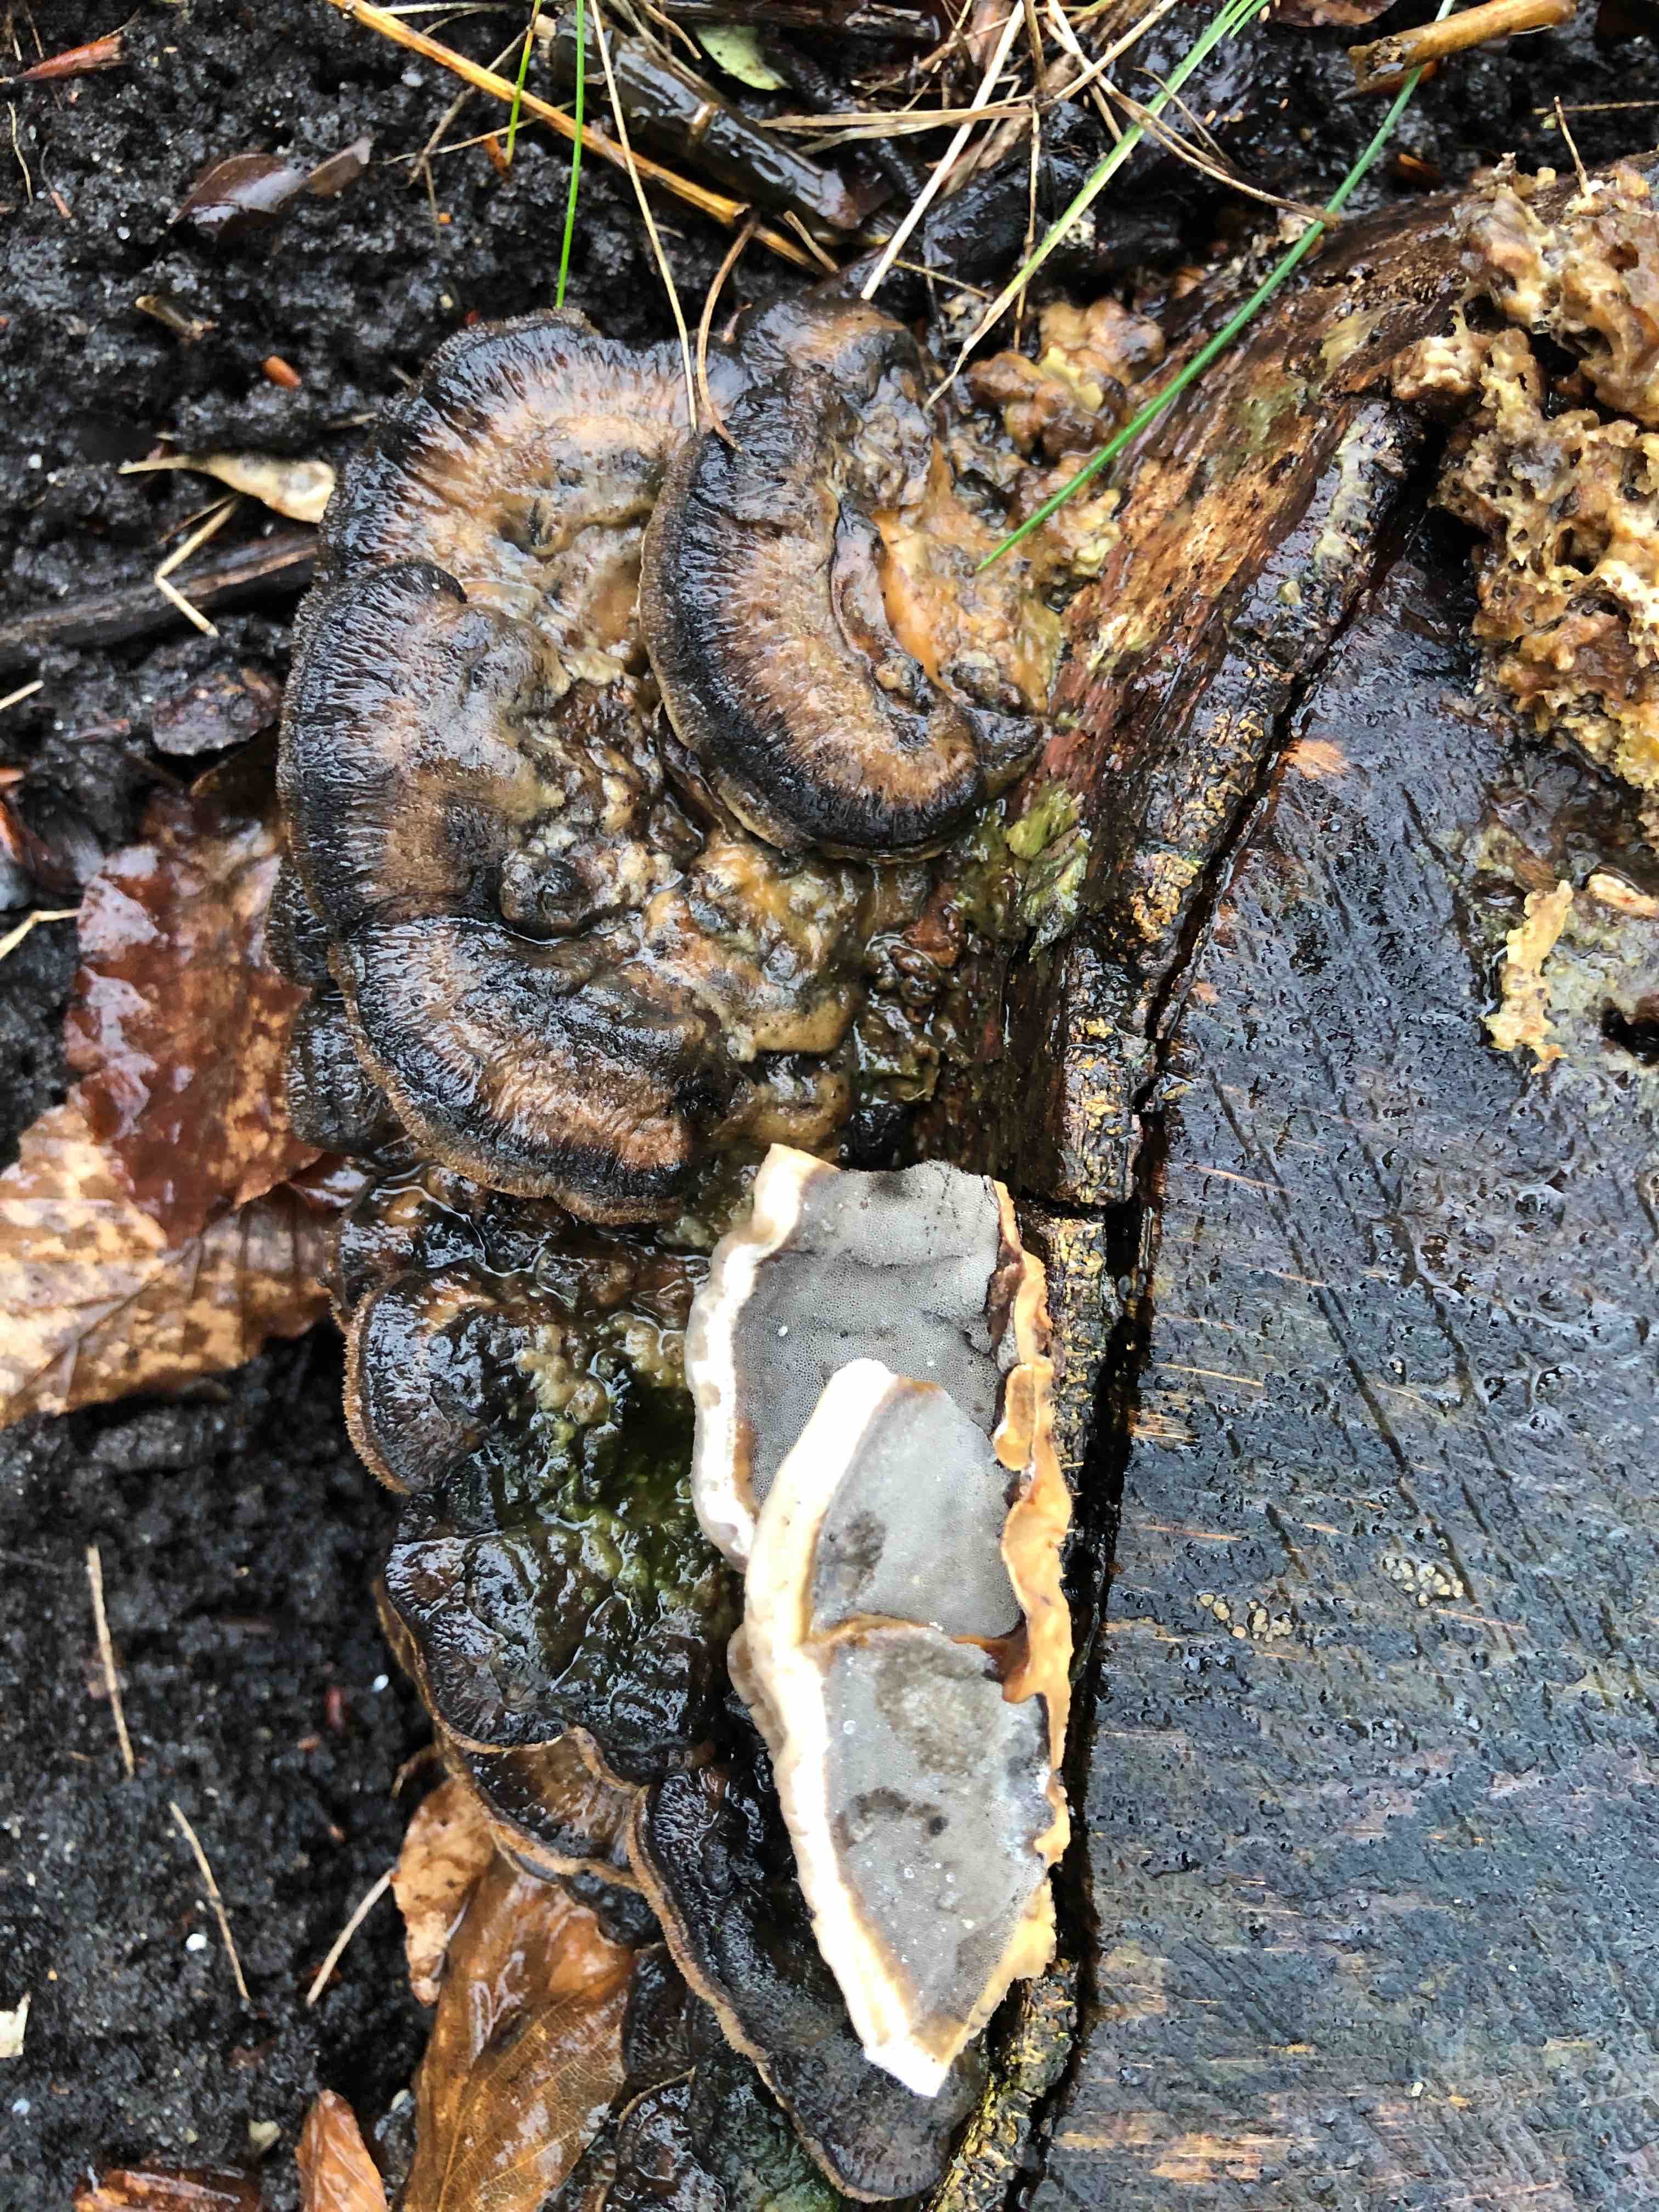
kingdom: Fungi
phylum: Basidiomycota
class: Agaricomycetes
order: Polyporales
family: Phanerochaetaceae
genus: Bjerkandera
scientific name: Bjerkandera adusta
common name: sveden sodporesvamp
